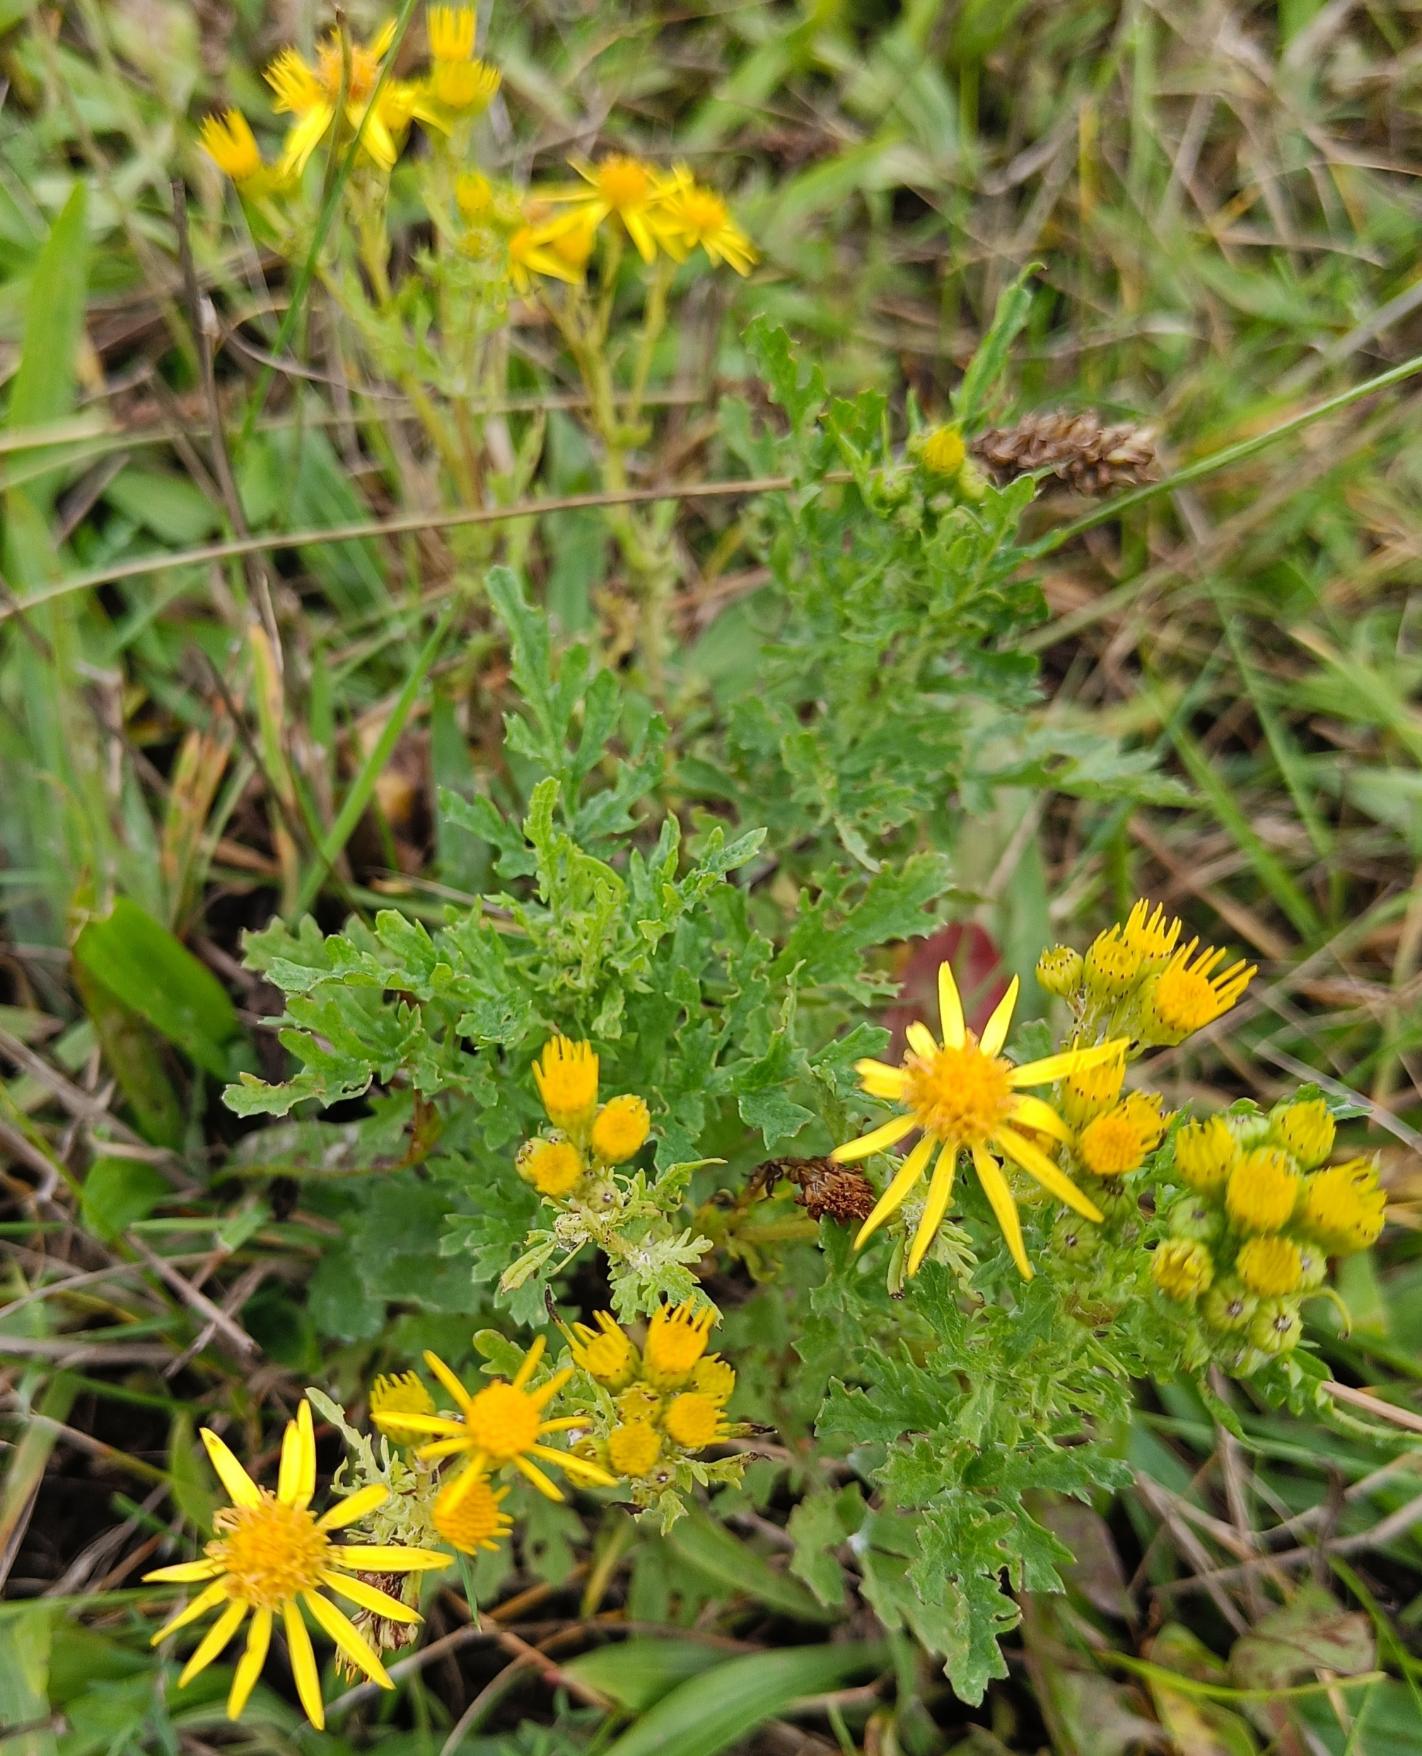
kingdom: Plantae
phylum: Tracheophyta
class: Magnoliopsida
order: Asterales
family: Asteraceae
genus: Jacobaea
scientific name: Jacobaea vulgaris
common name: Eng-brandbæger
